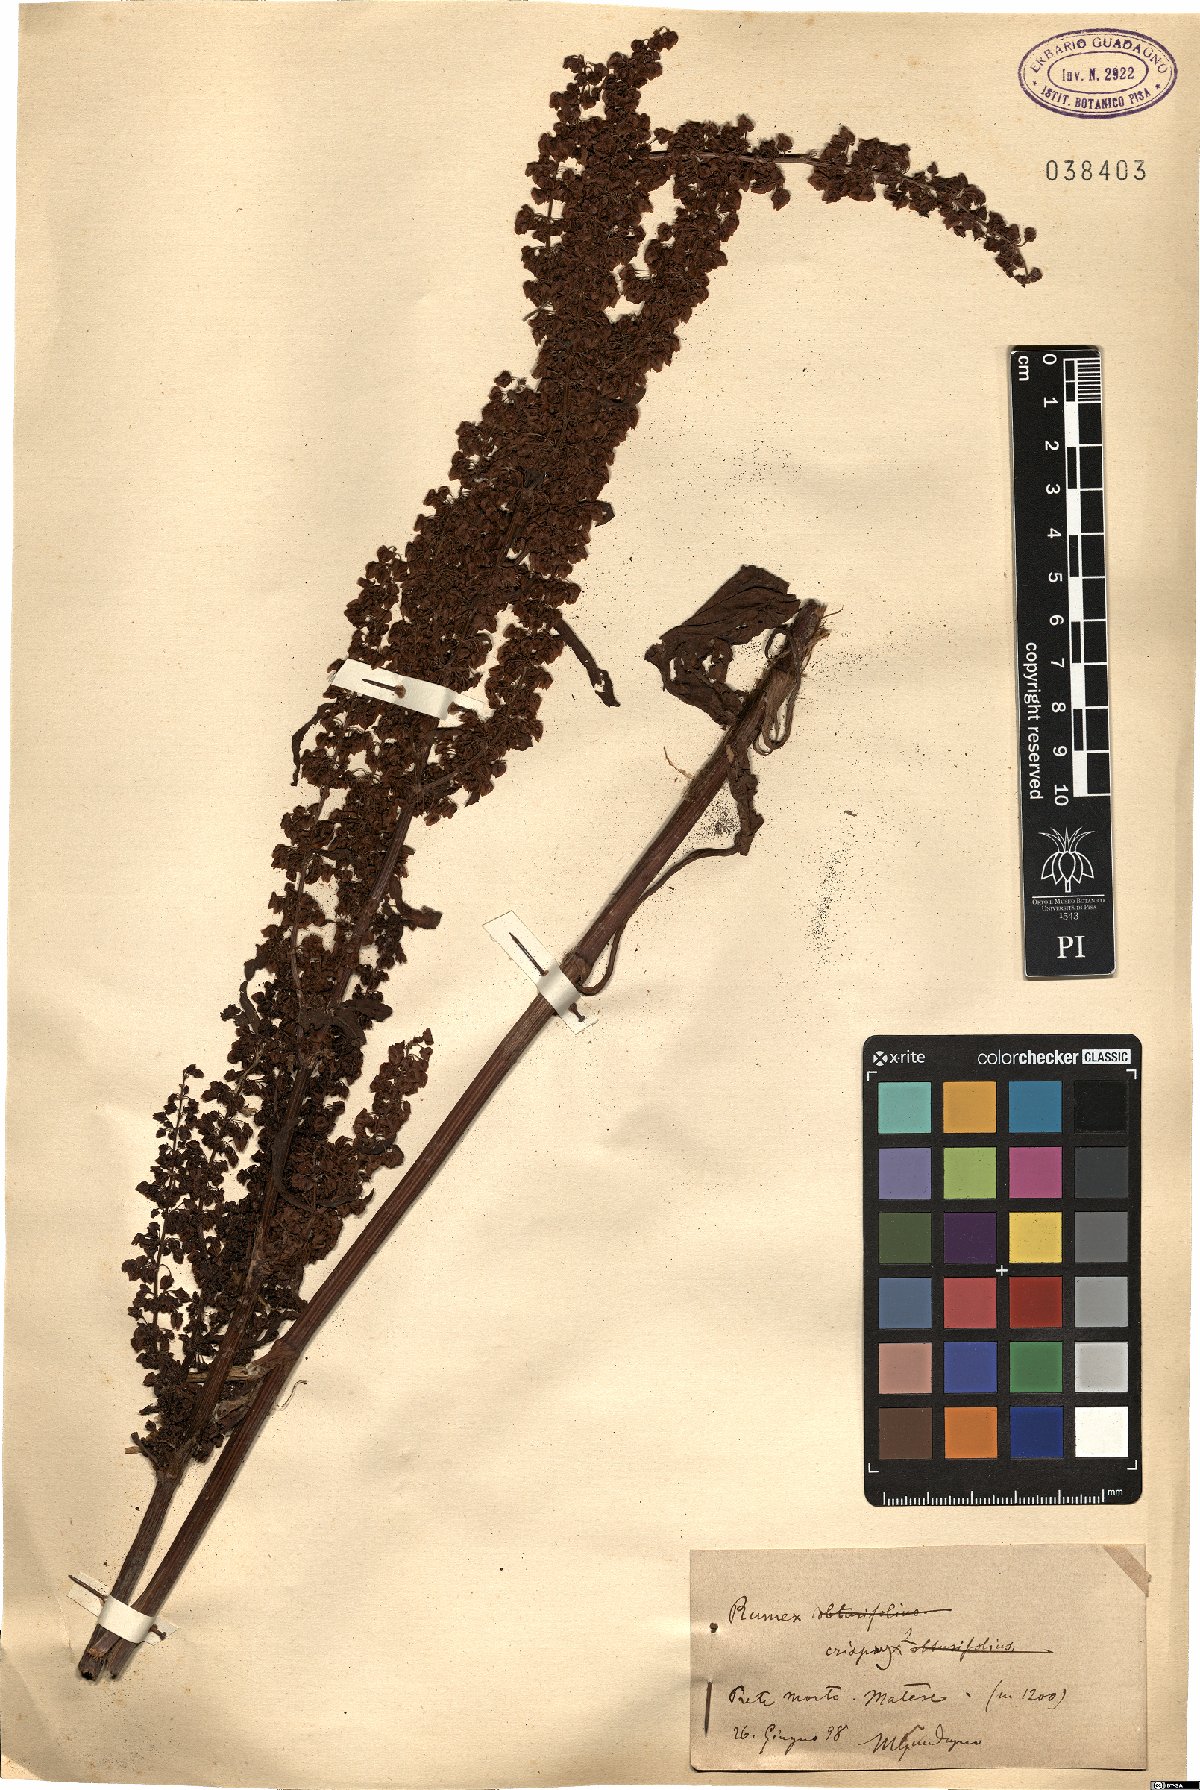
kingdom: Plantae
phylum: Tracheophyta
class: Magnoliopsida
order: Caryophyllales
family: Polygonaceae
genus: Rumex
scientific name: Rumex crispus
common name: Curled dock
